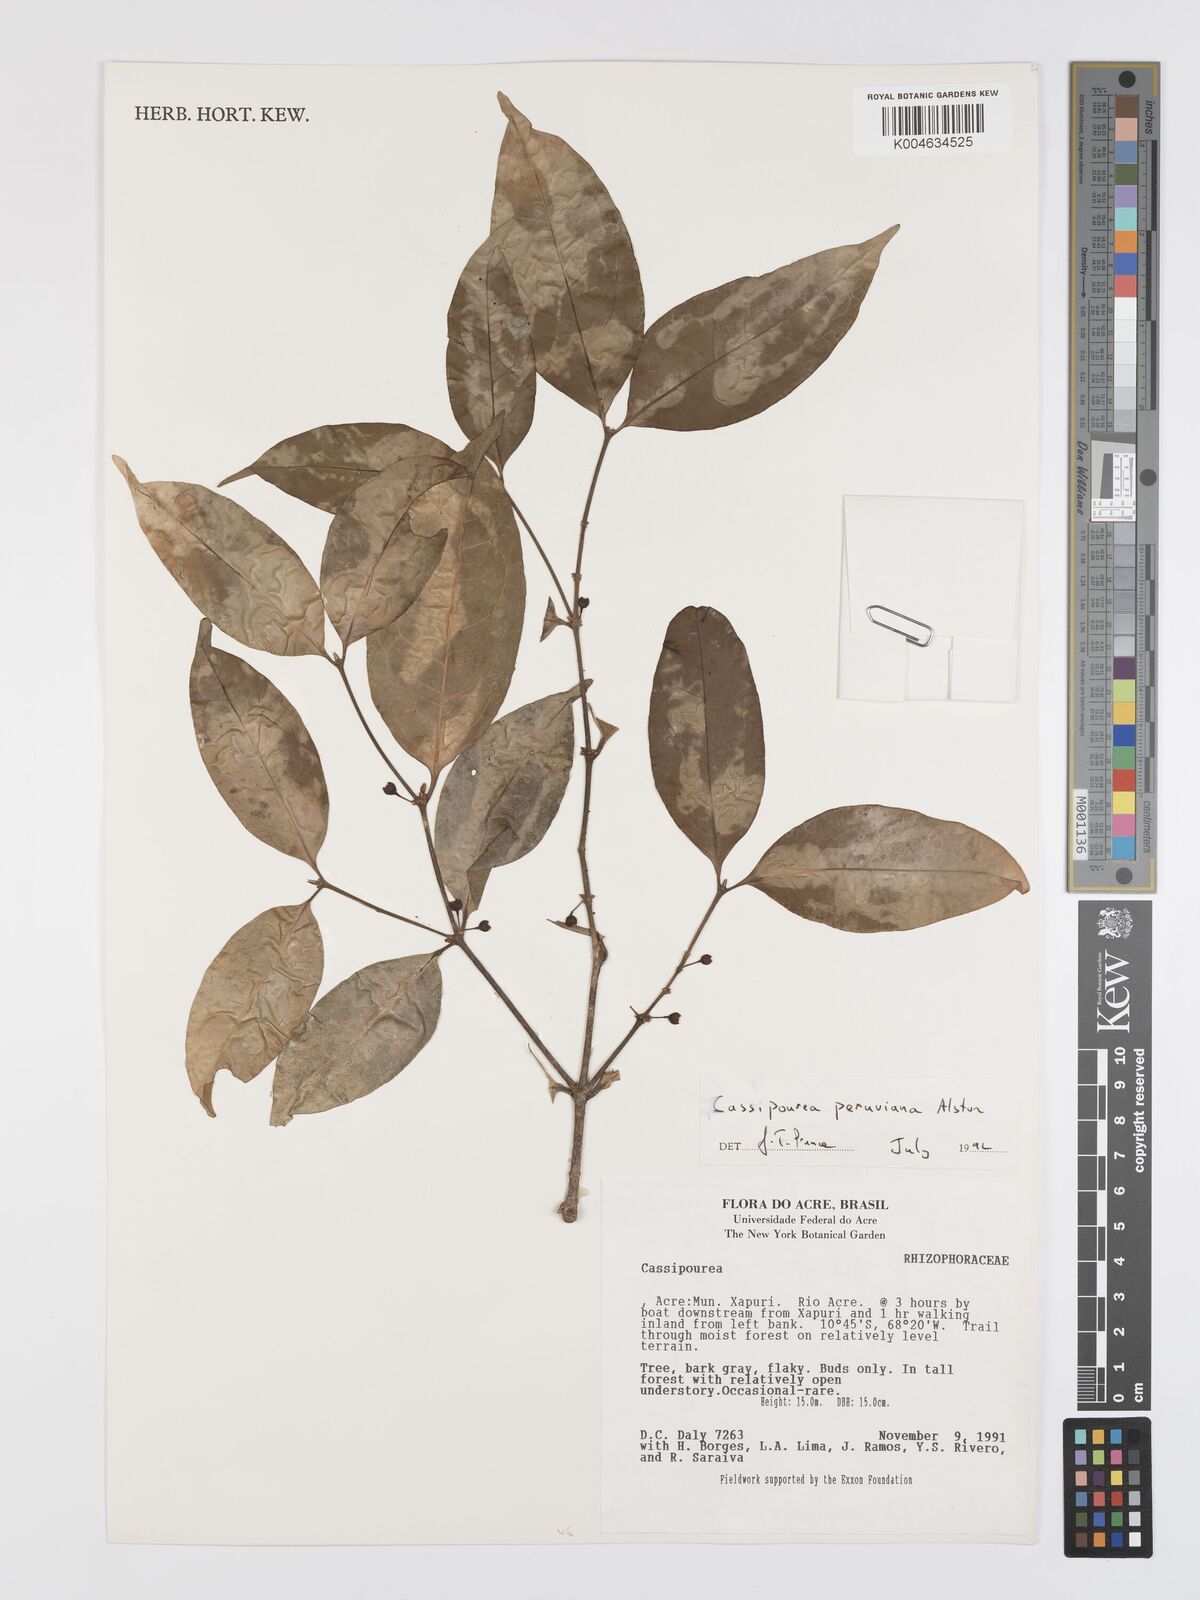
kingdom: Plantae
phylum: Tracheophyta
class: Magnoliopsida
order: Malpighiales
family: Rhizophoraceae
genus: Cassipourea
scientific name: Cassipourea peruviana
